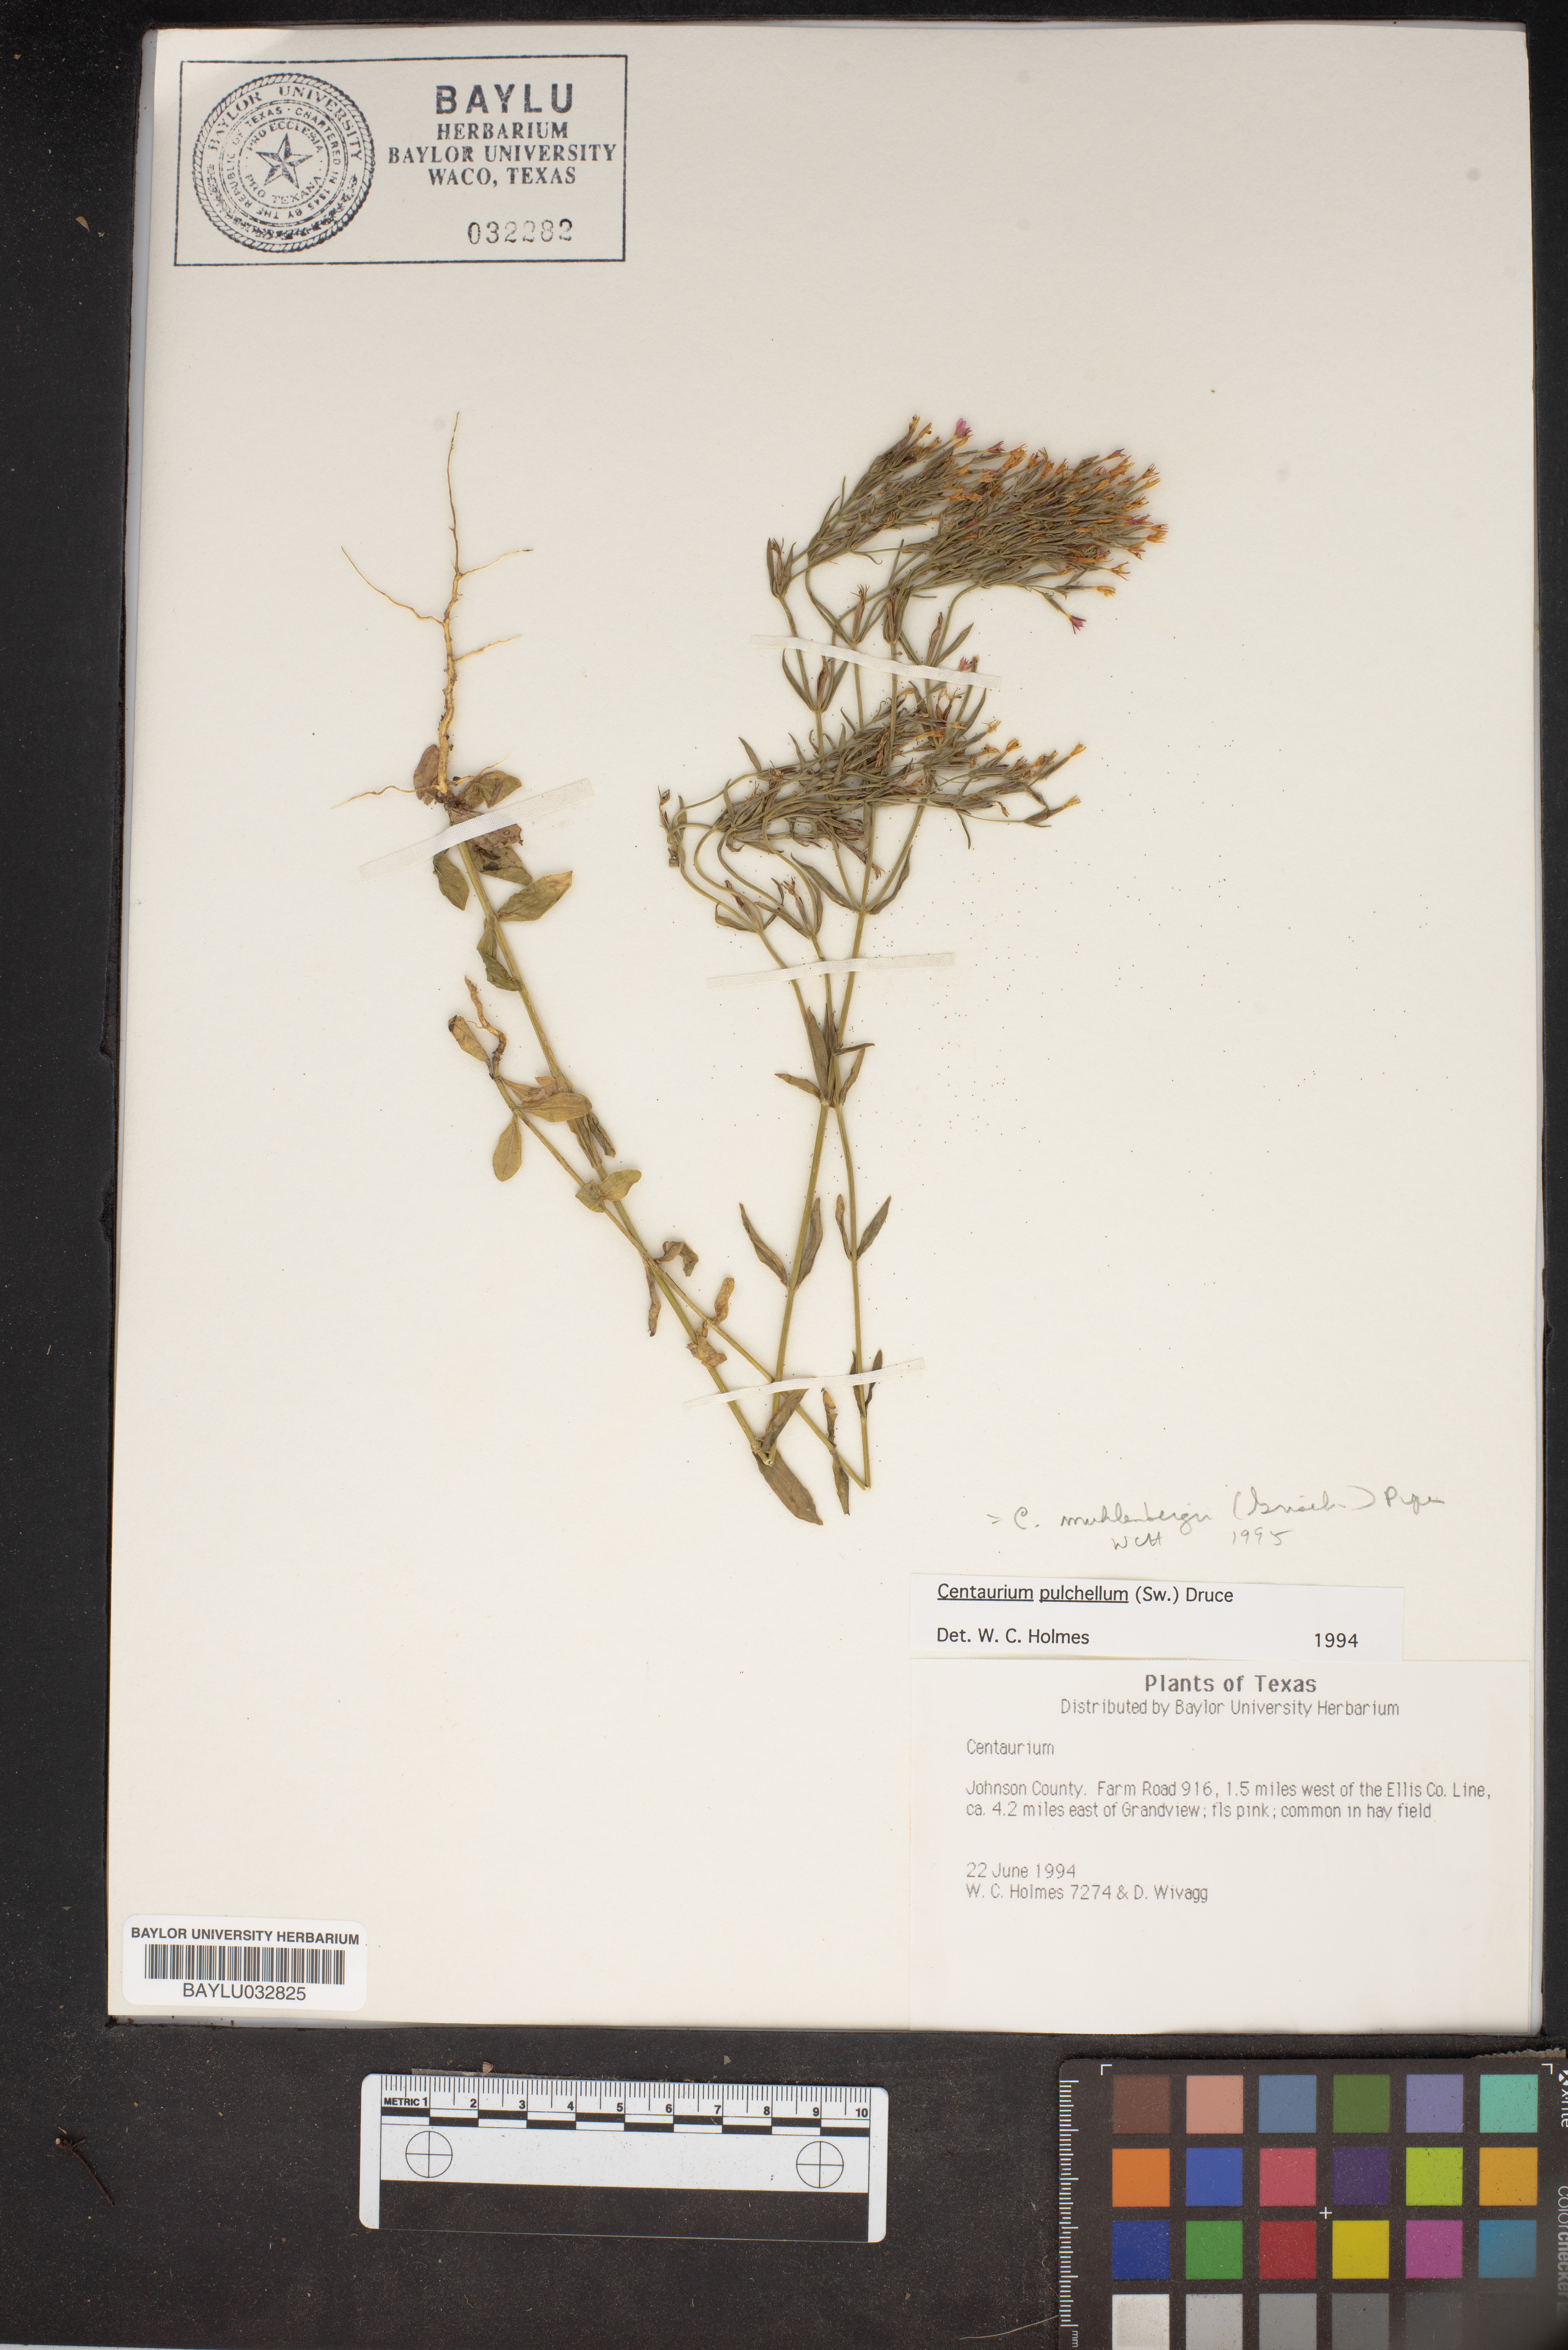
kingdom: Plantae
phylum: Tracheophyta
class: Magnoliopsida
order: Gentianales
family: Gentianaceae
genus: Zeltnera
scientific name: Zeltnera muhlenbergii
